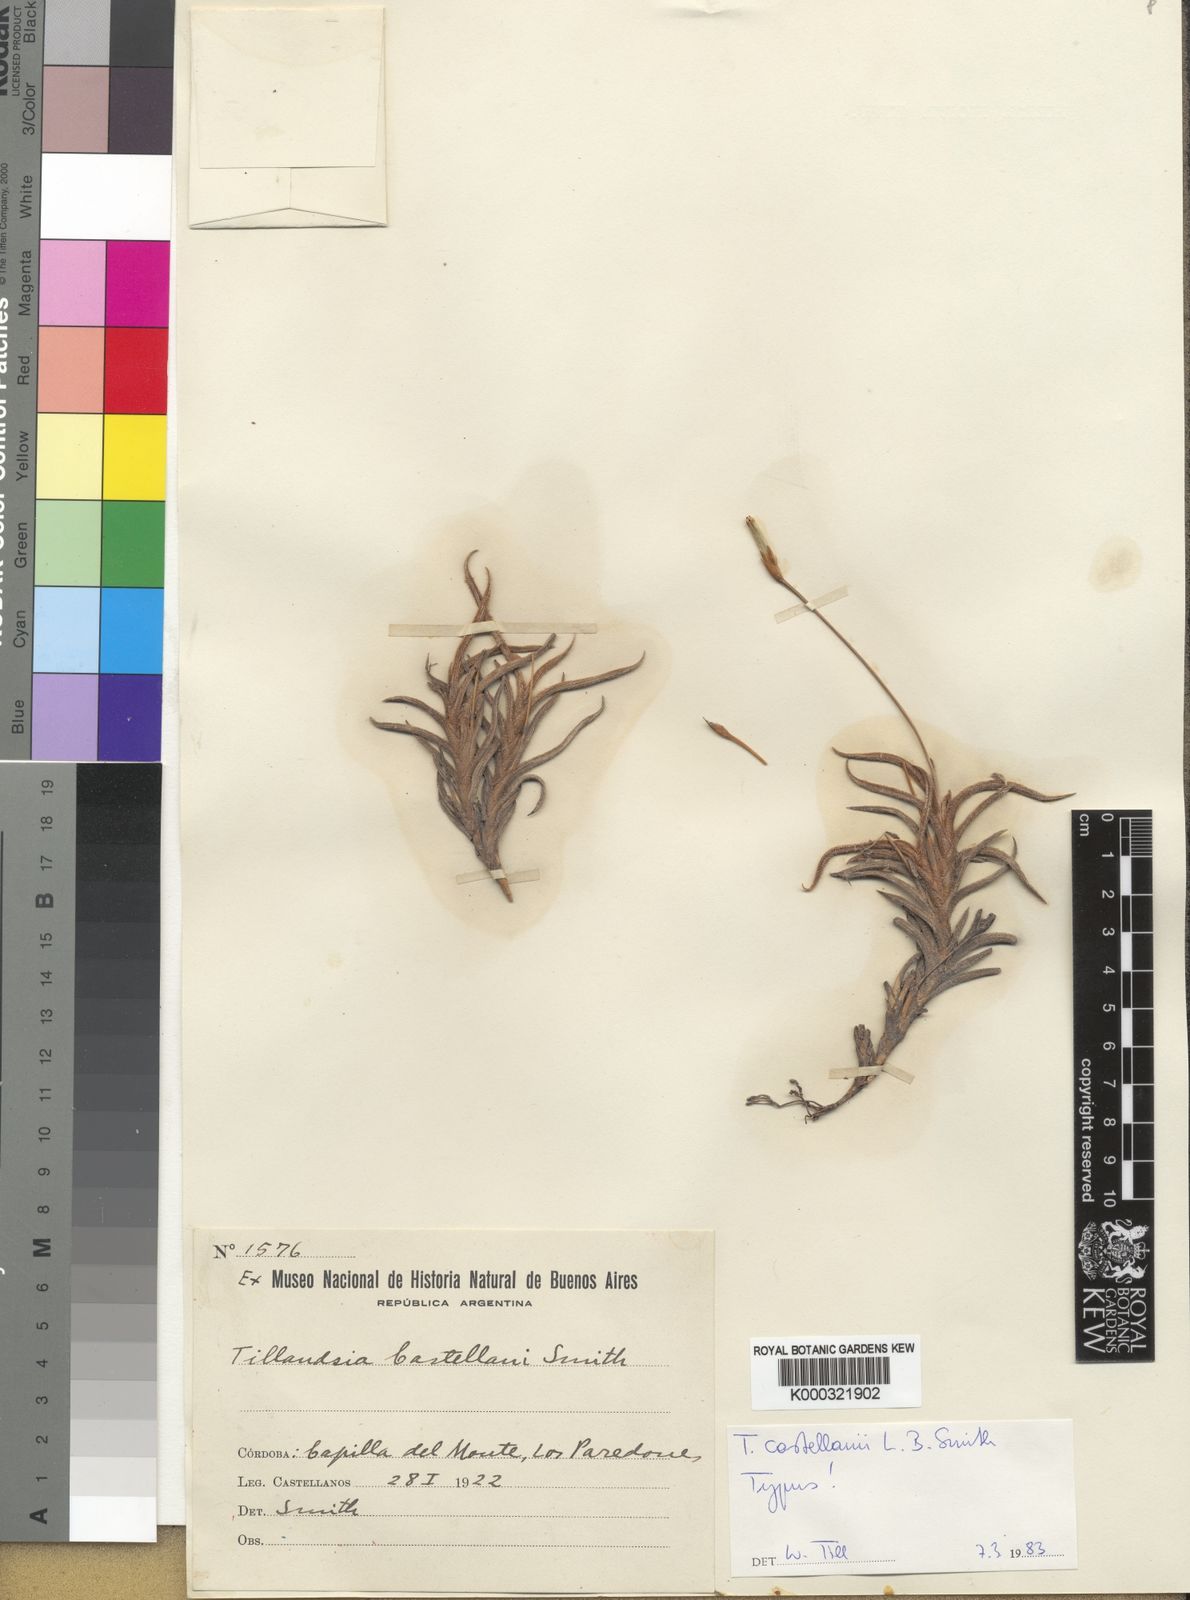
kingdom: Plantae
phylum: Tracheophyta
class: Liliopsida
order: Poales
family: Bromeliaceae
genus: Tillandsia
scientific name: Tillandsia castellanii
